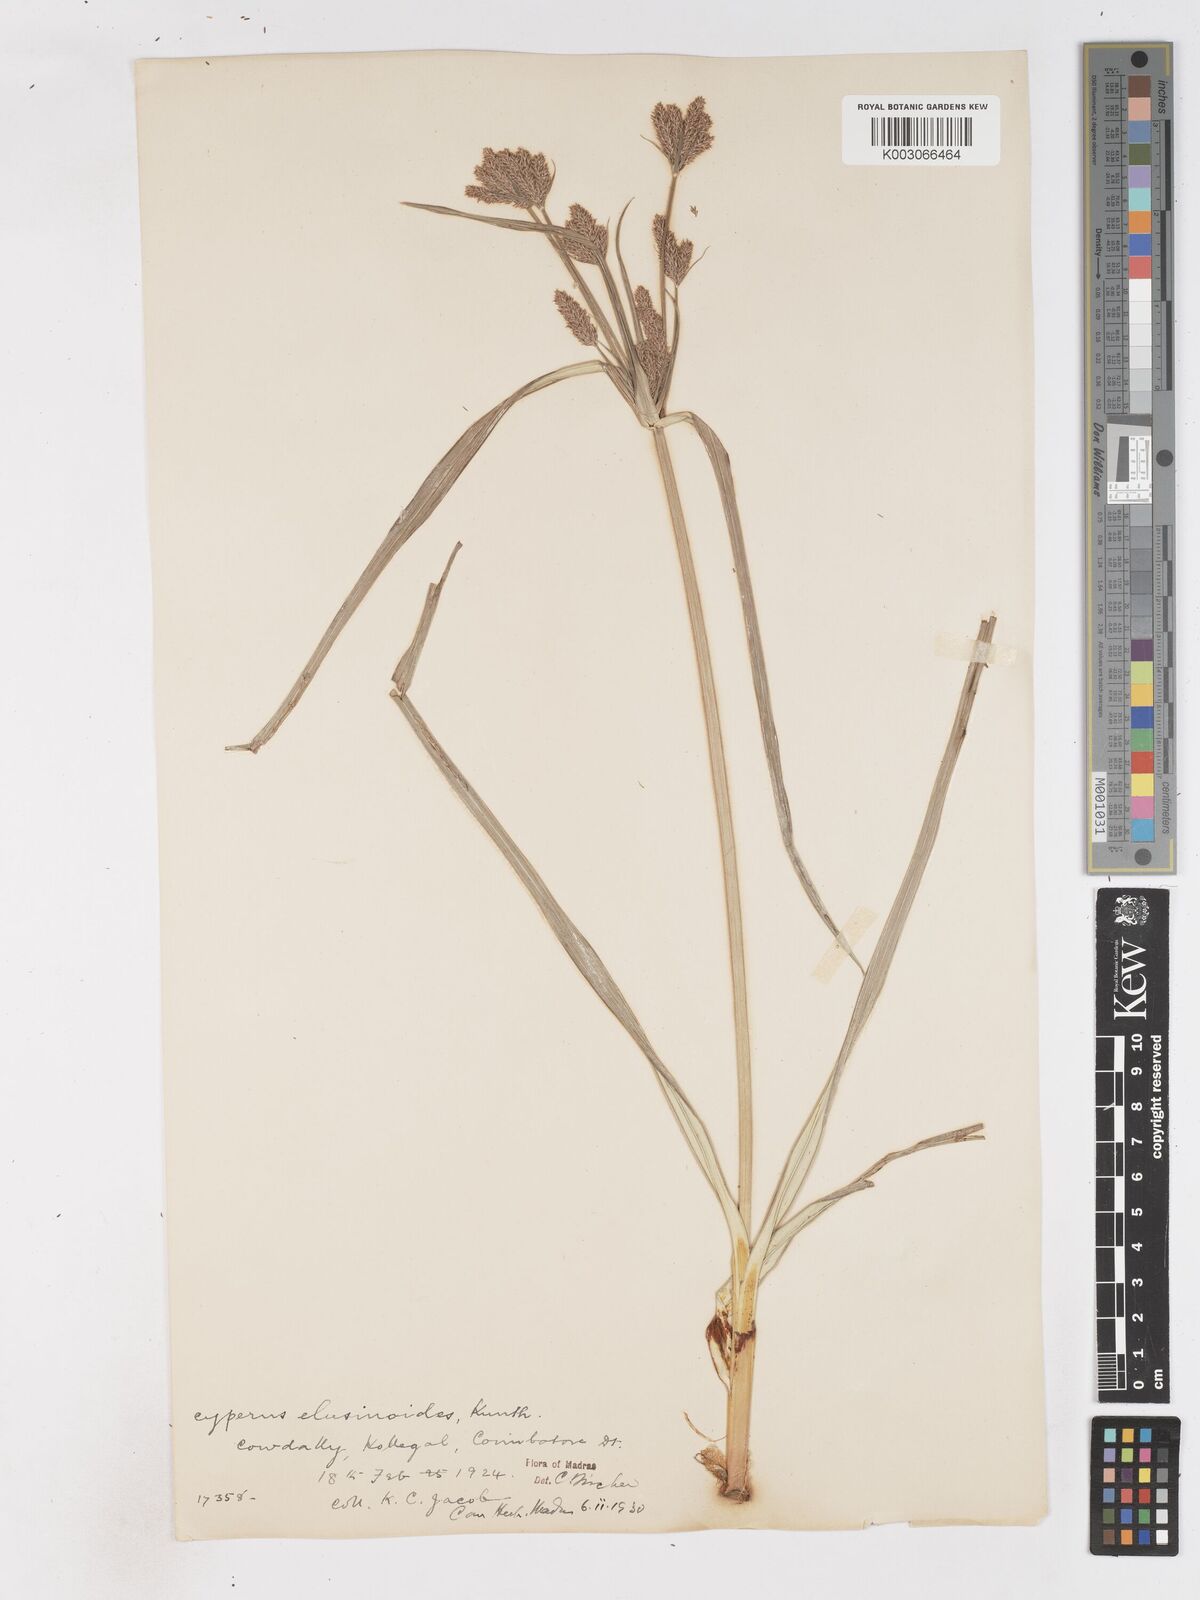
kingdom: Plantae
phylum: Tracheophyta
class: Liliopsida
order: Poales
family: Cyperaceae
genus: Cyperus
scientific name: Cyperus nutans
